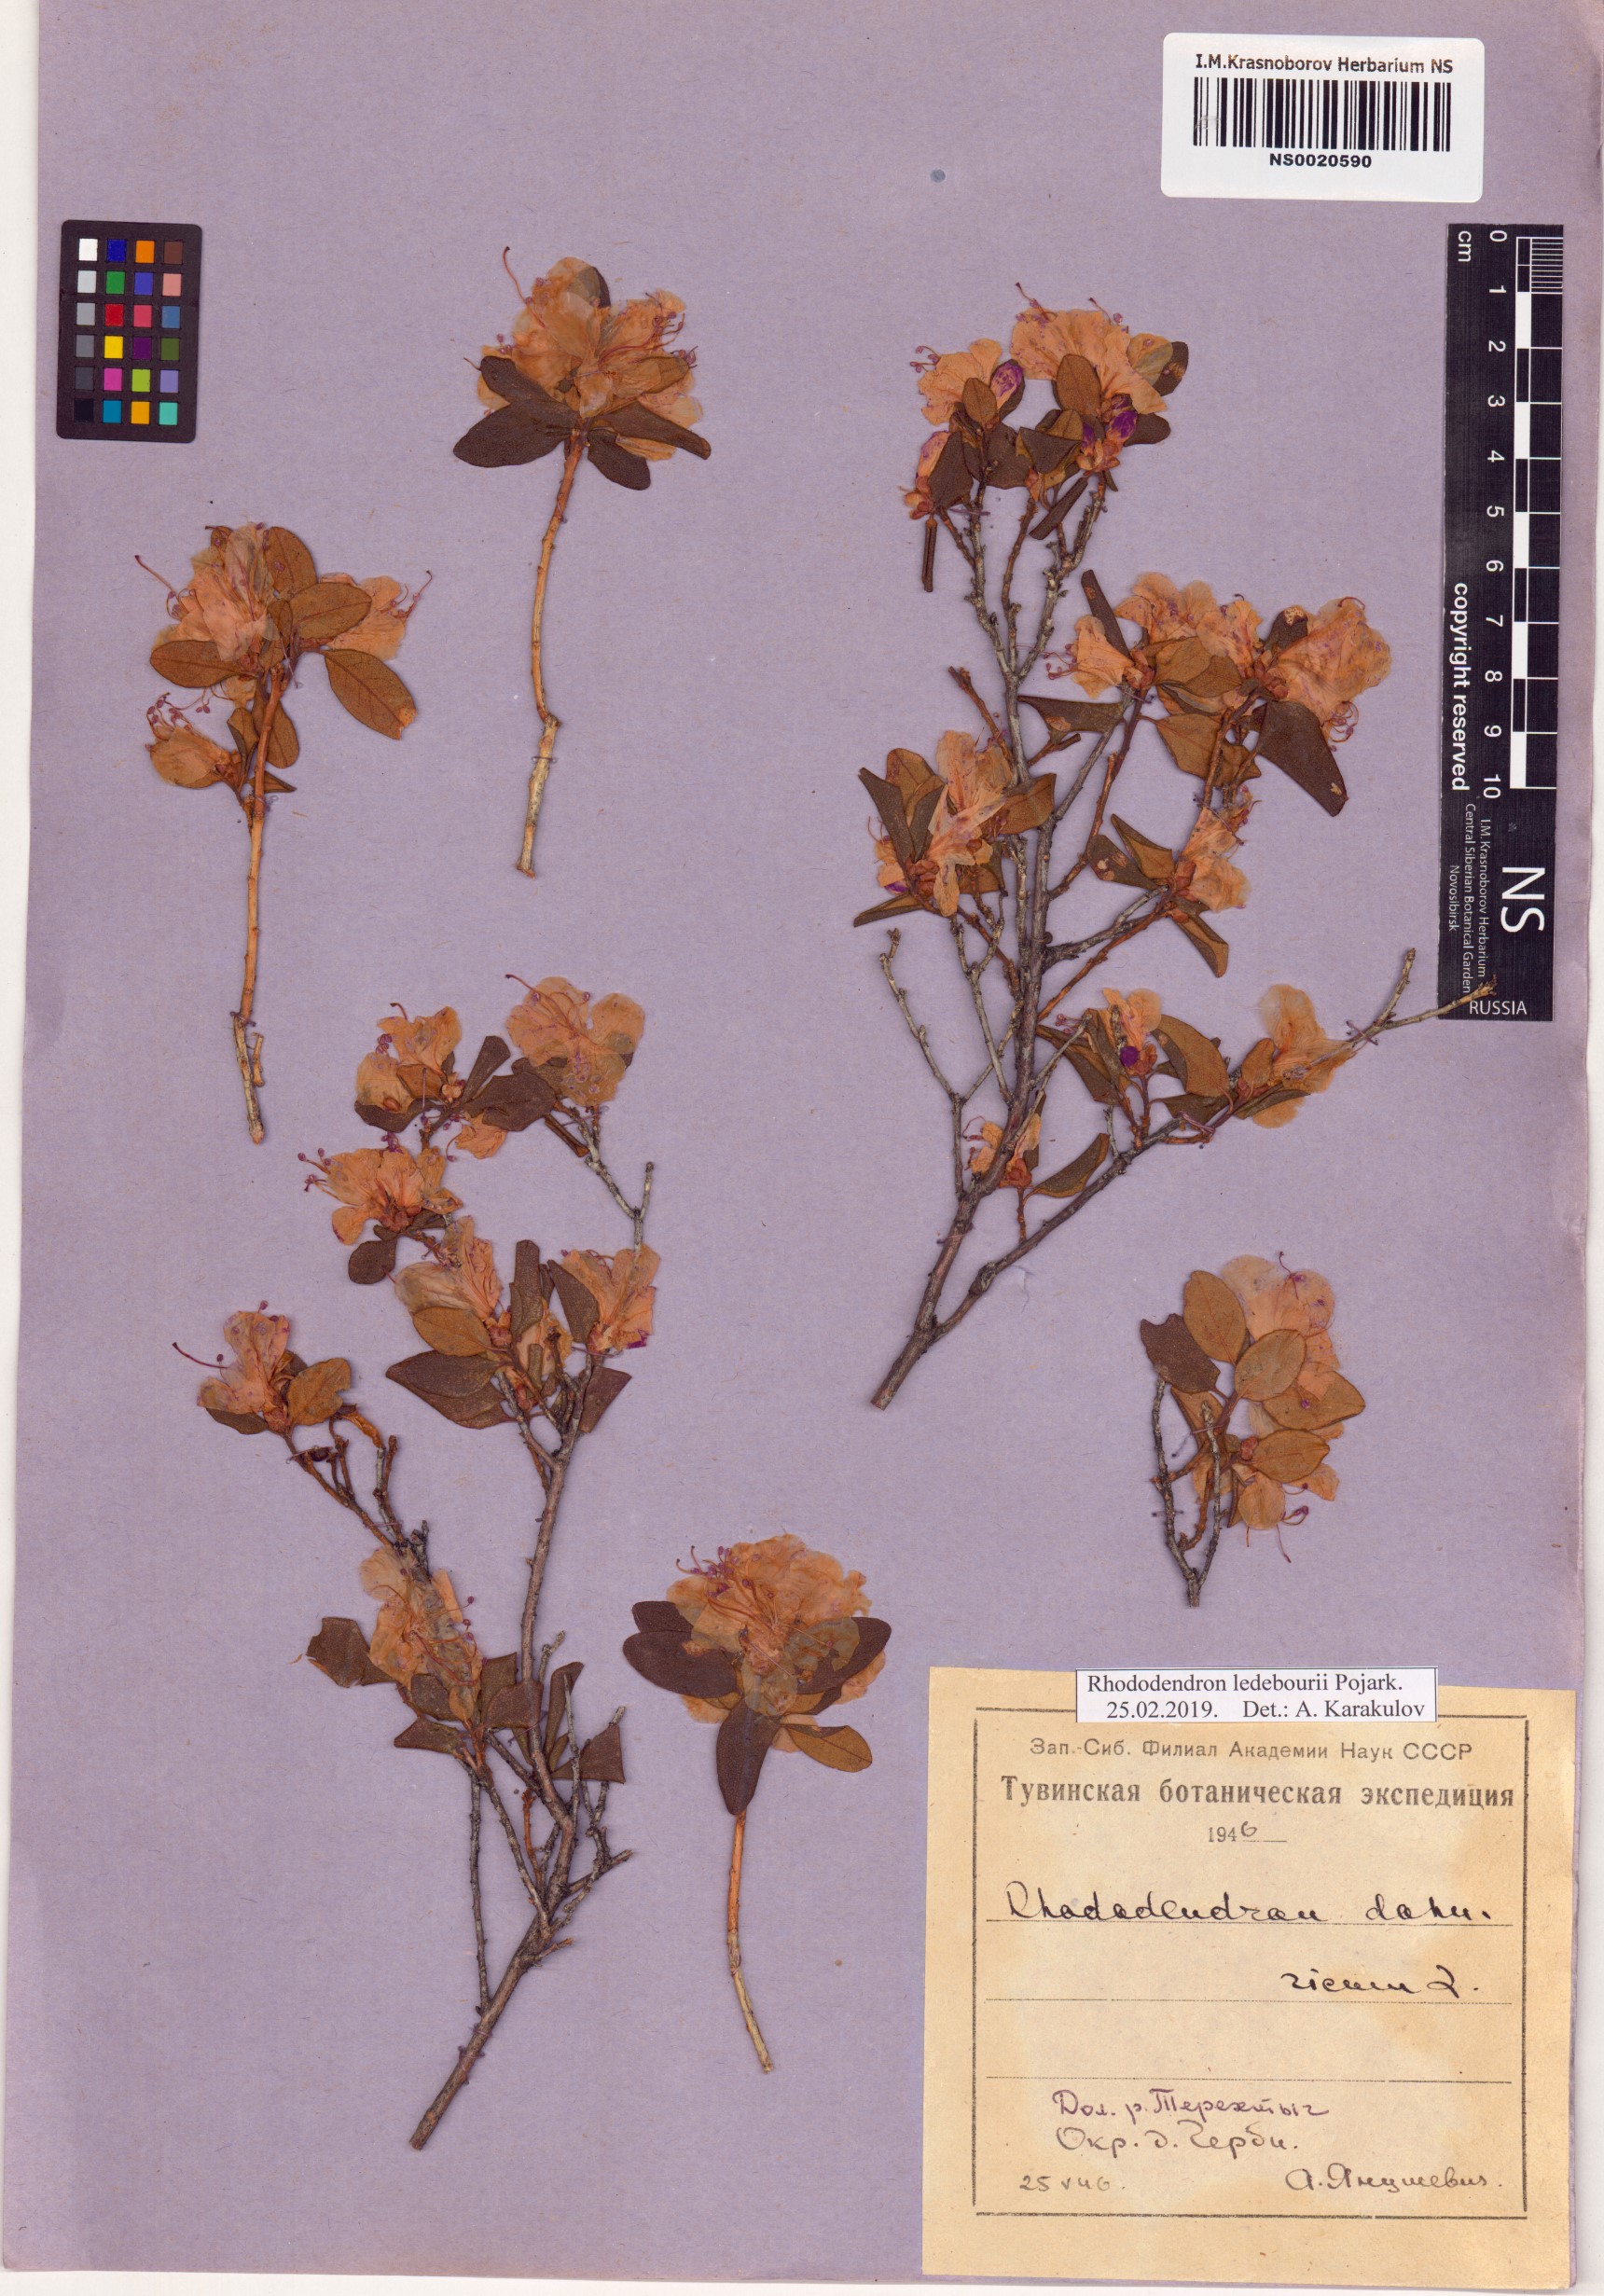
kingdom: Plantae
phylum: Tracheophyta
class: Magnoliopsida
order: Ericales
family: Ericaceae
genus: Rhododendron
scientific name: Rhododendron dauricum
